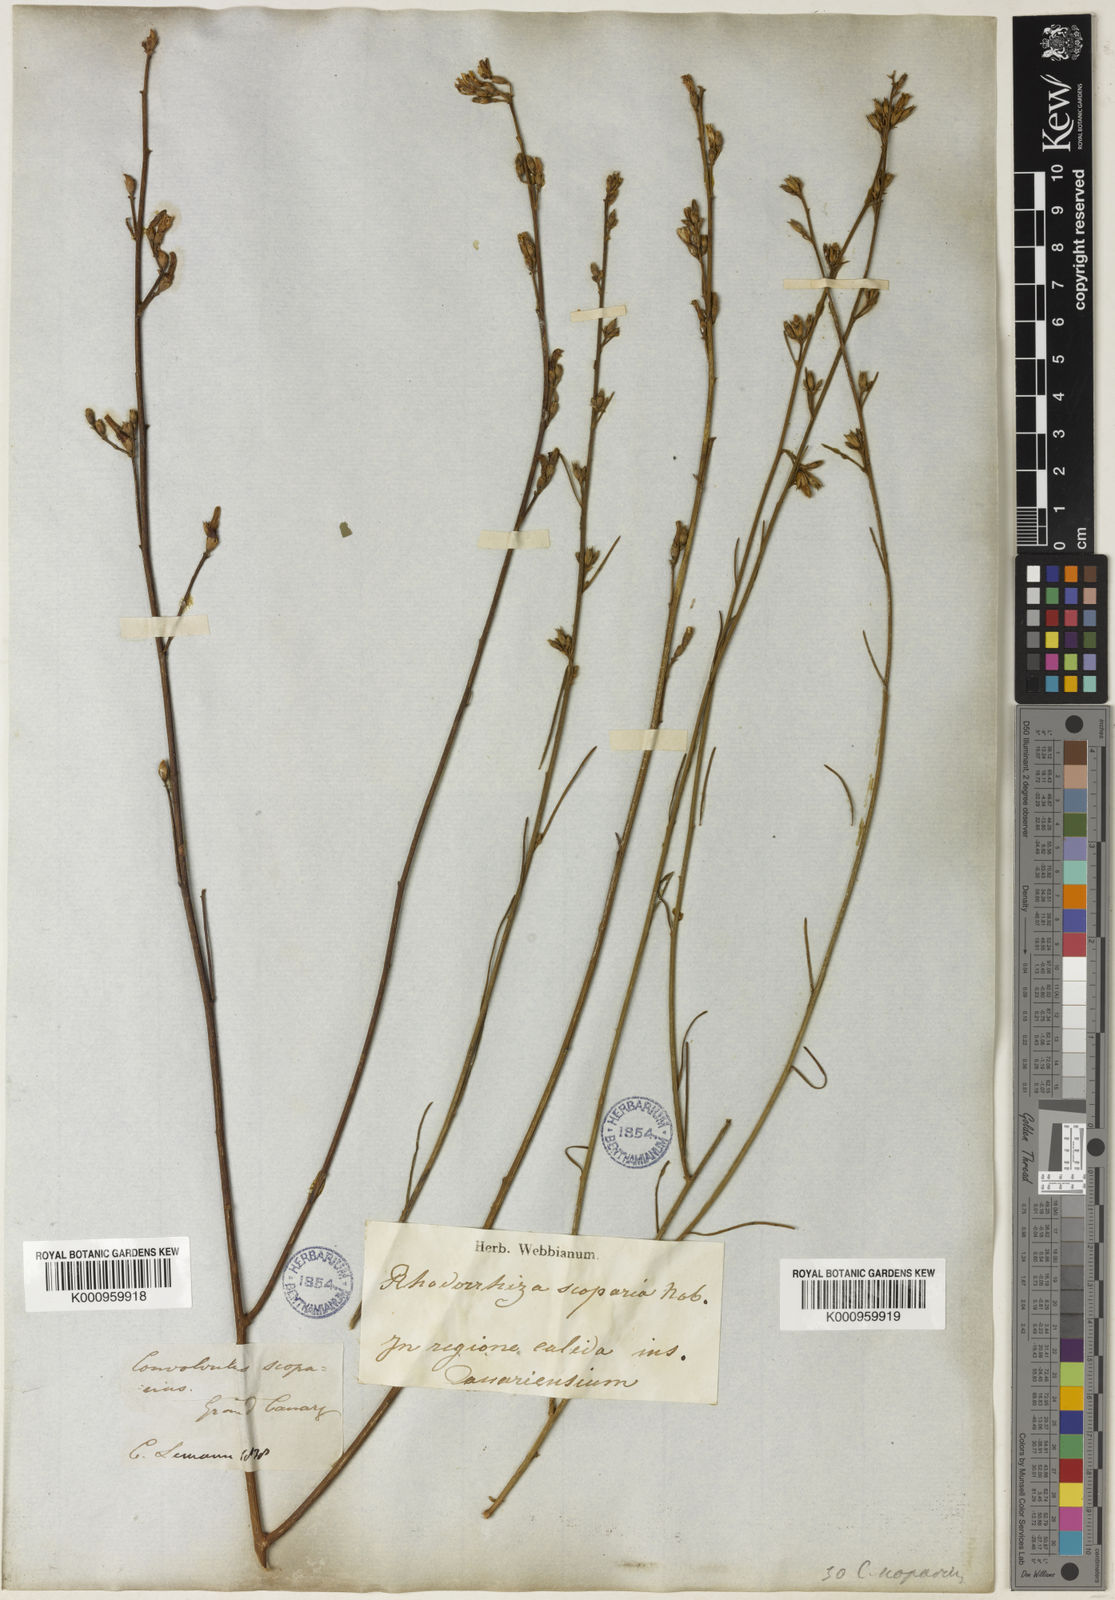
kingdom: Plantae
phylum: Tracheophyta
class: Magnoliopsida
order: Solanales
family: Convolvulaceae
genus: Convolvulus
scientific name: Convolvulus scoparius
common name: Lignum rhodium
